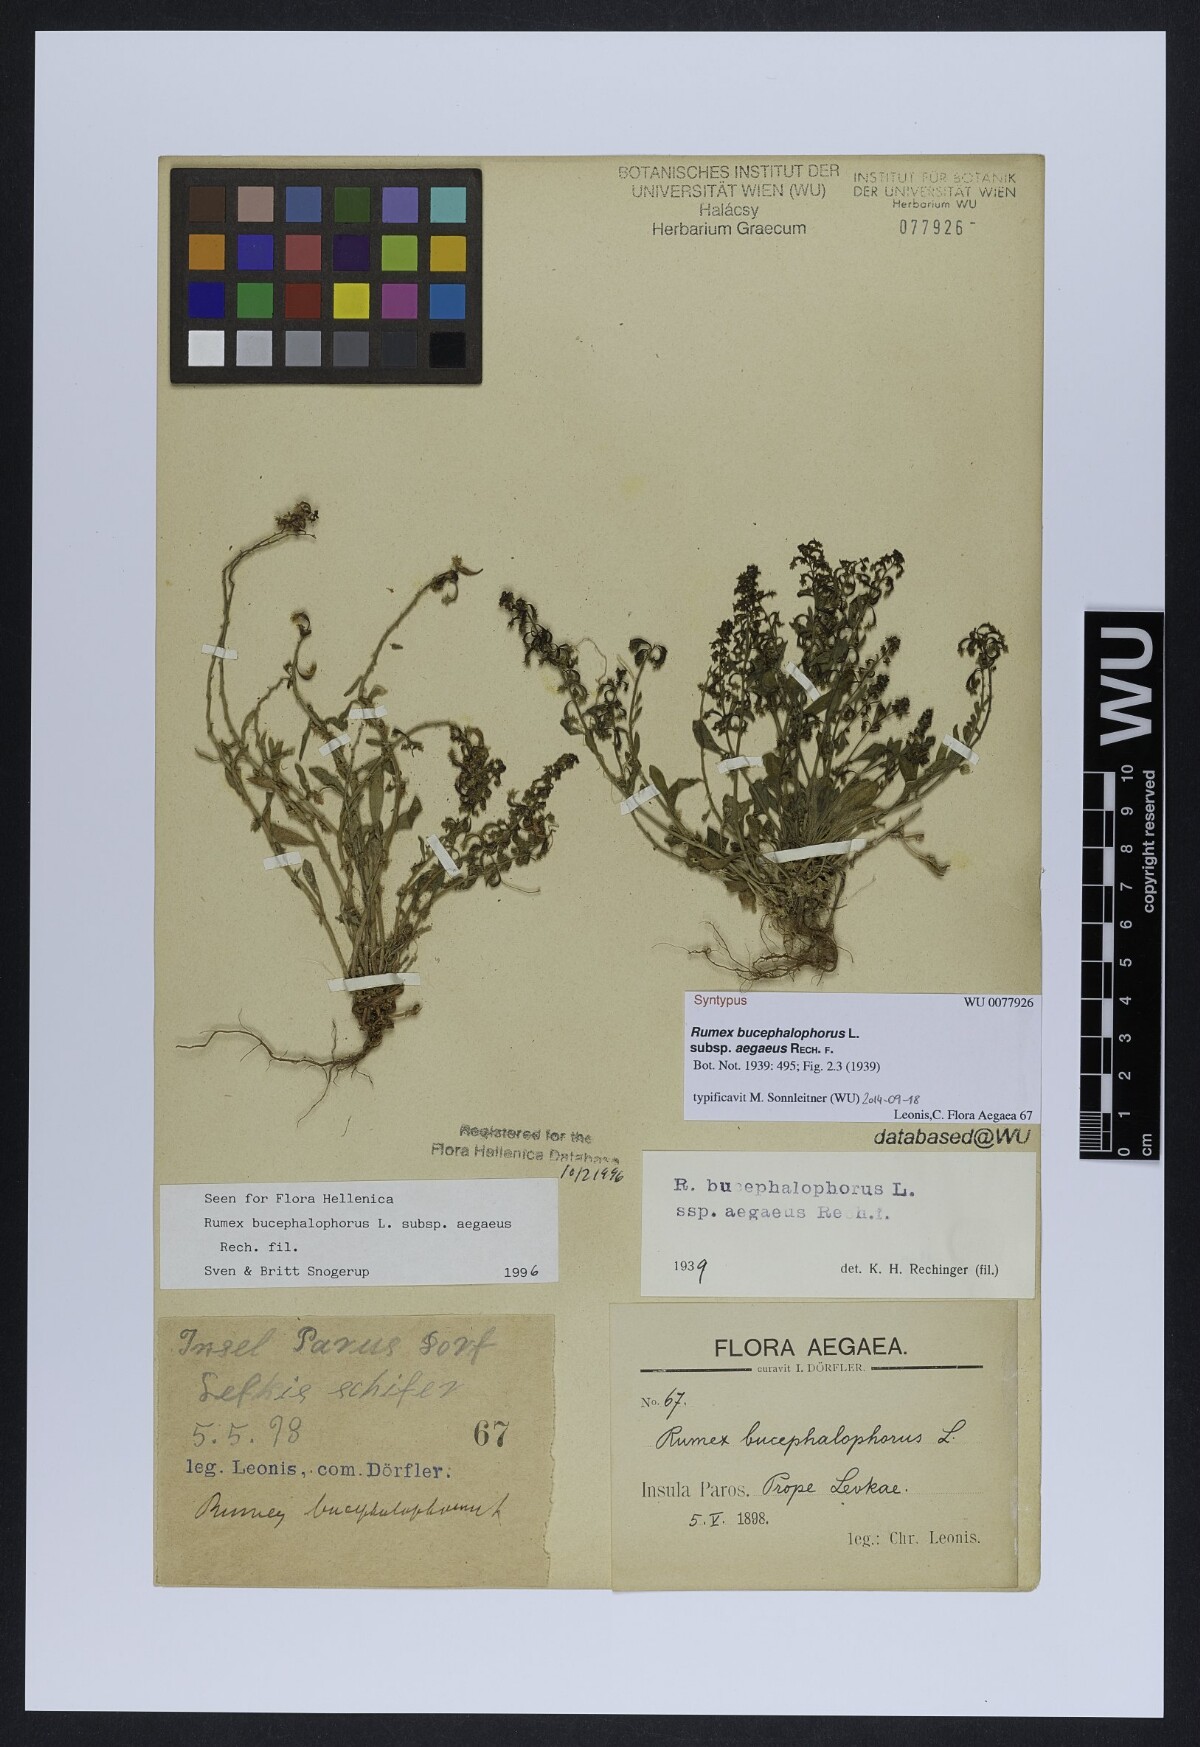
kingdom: Plantae
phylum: Tracheophyta
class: Magnoliopsida
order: Caryophyllales
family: Polygonaceae
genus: Rumex
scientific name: Rumex bucephalophorus
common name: Red dock
